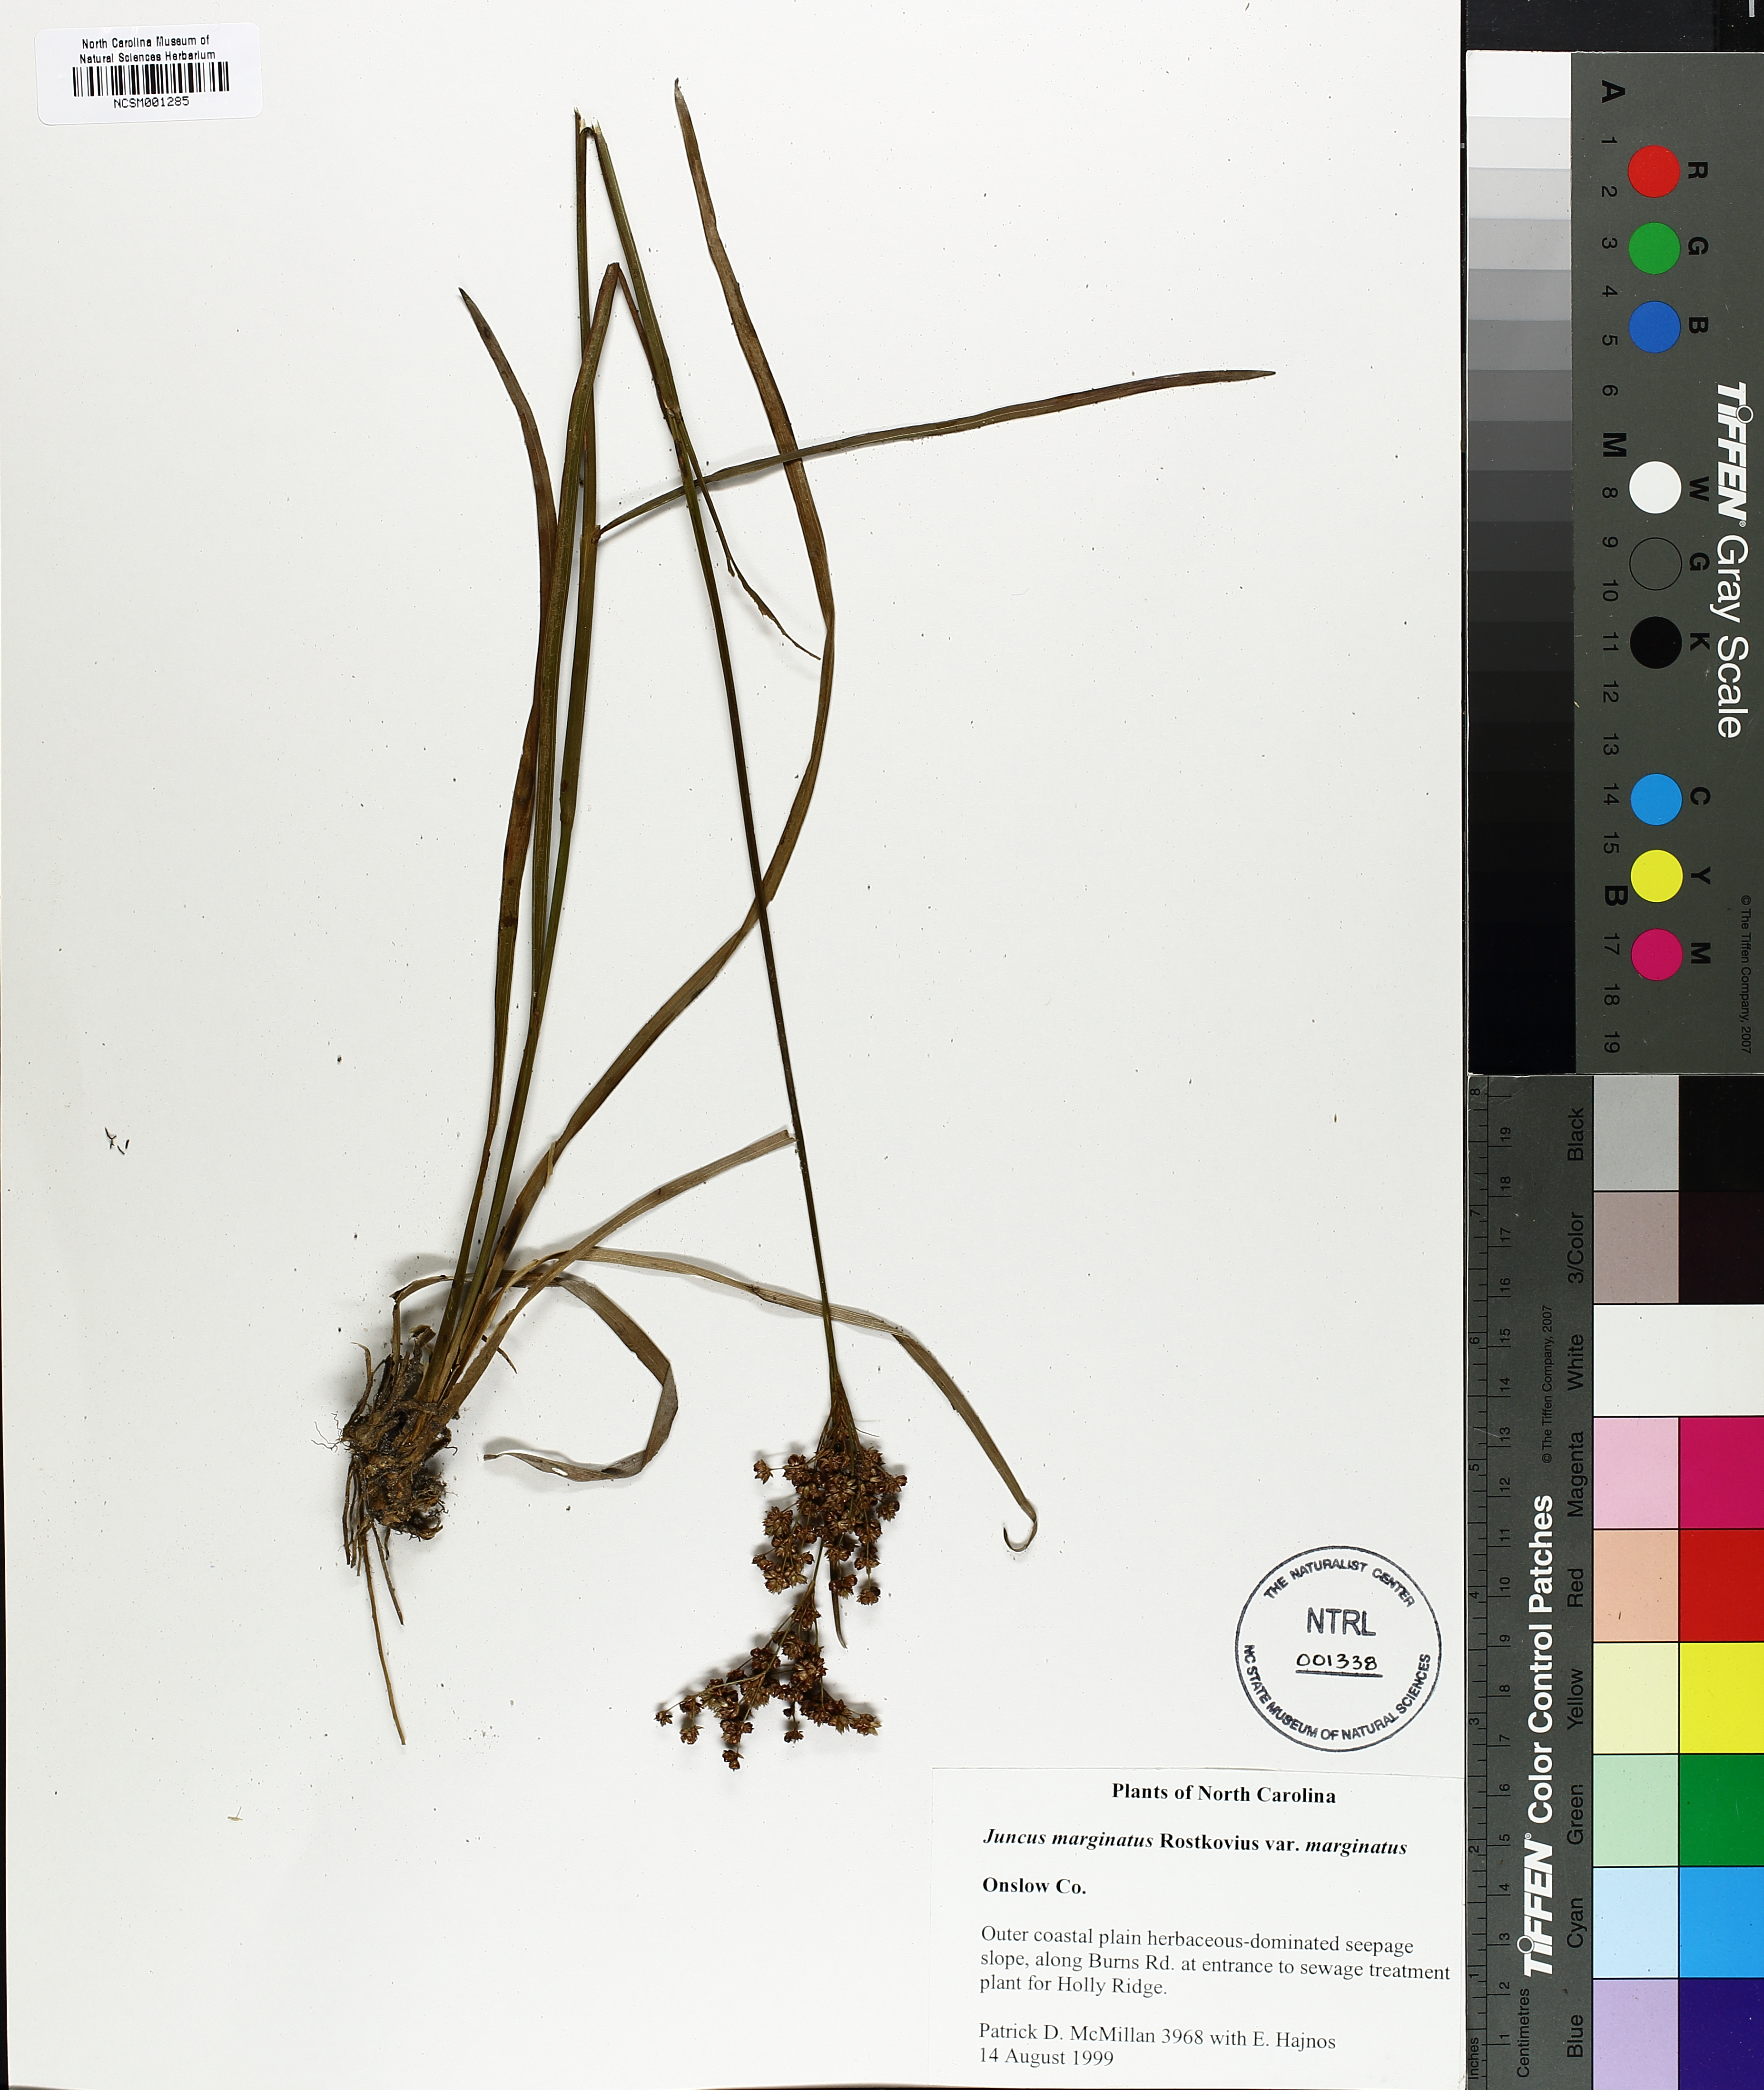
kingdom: Plantae
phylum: Tracheophyta
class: Liliopsida
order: Poales
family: Juncaceae
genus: Juncus
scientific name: Juncus marginatus
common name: Grass-leaf rush
